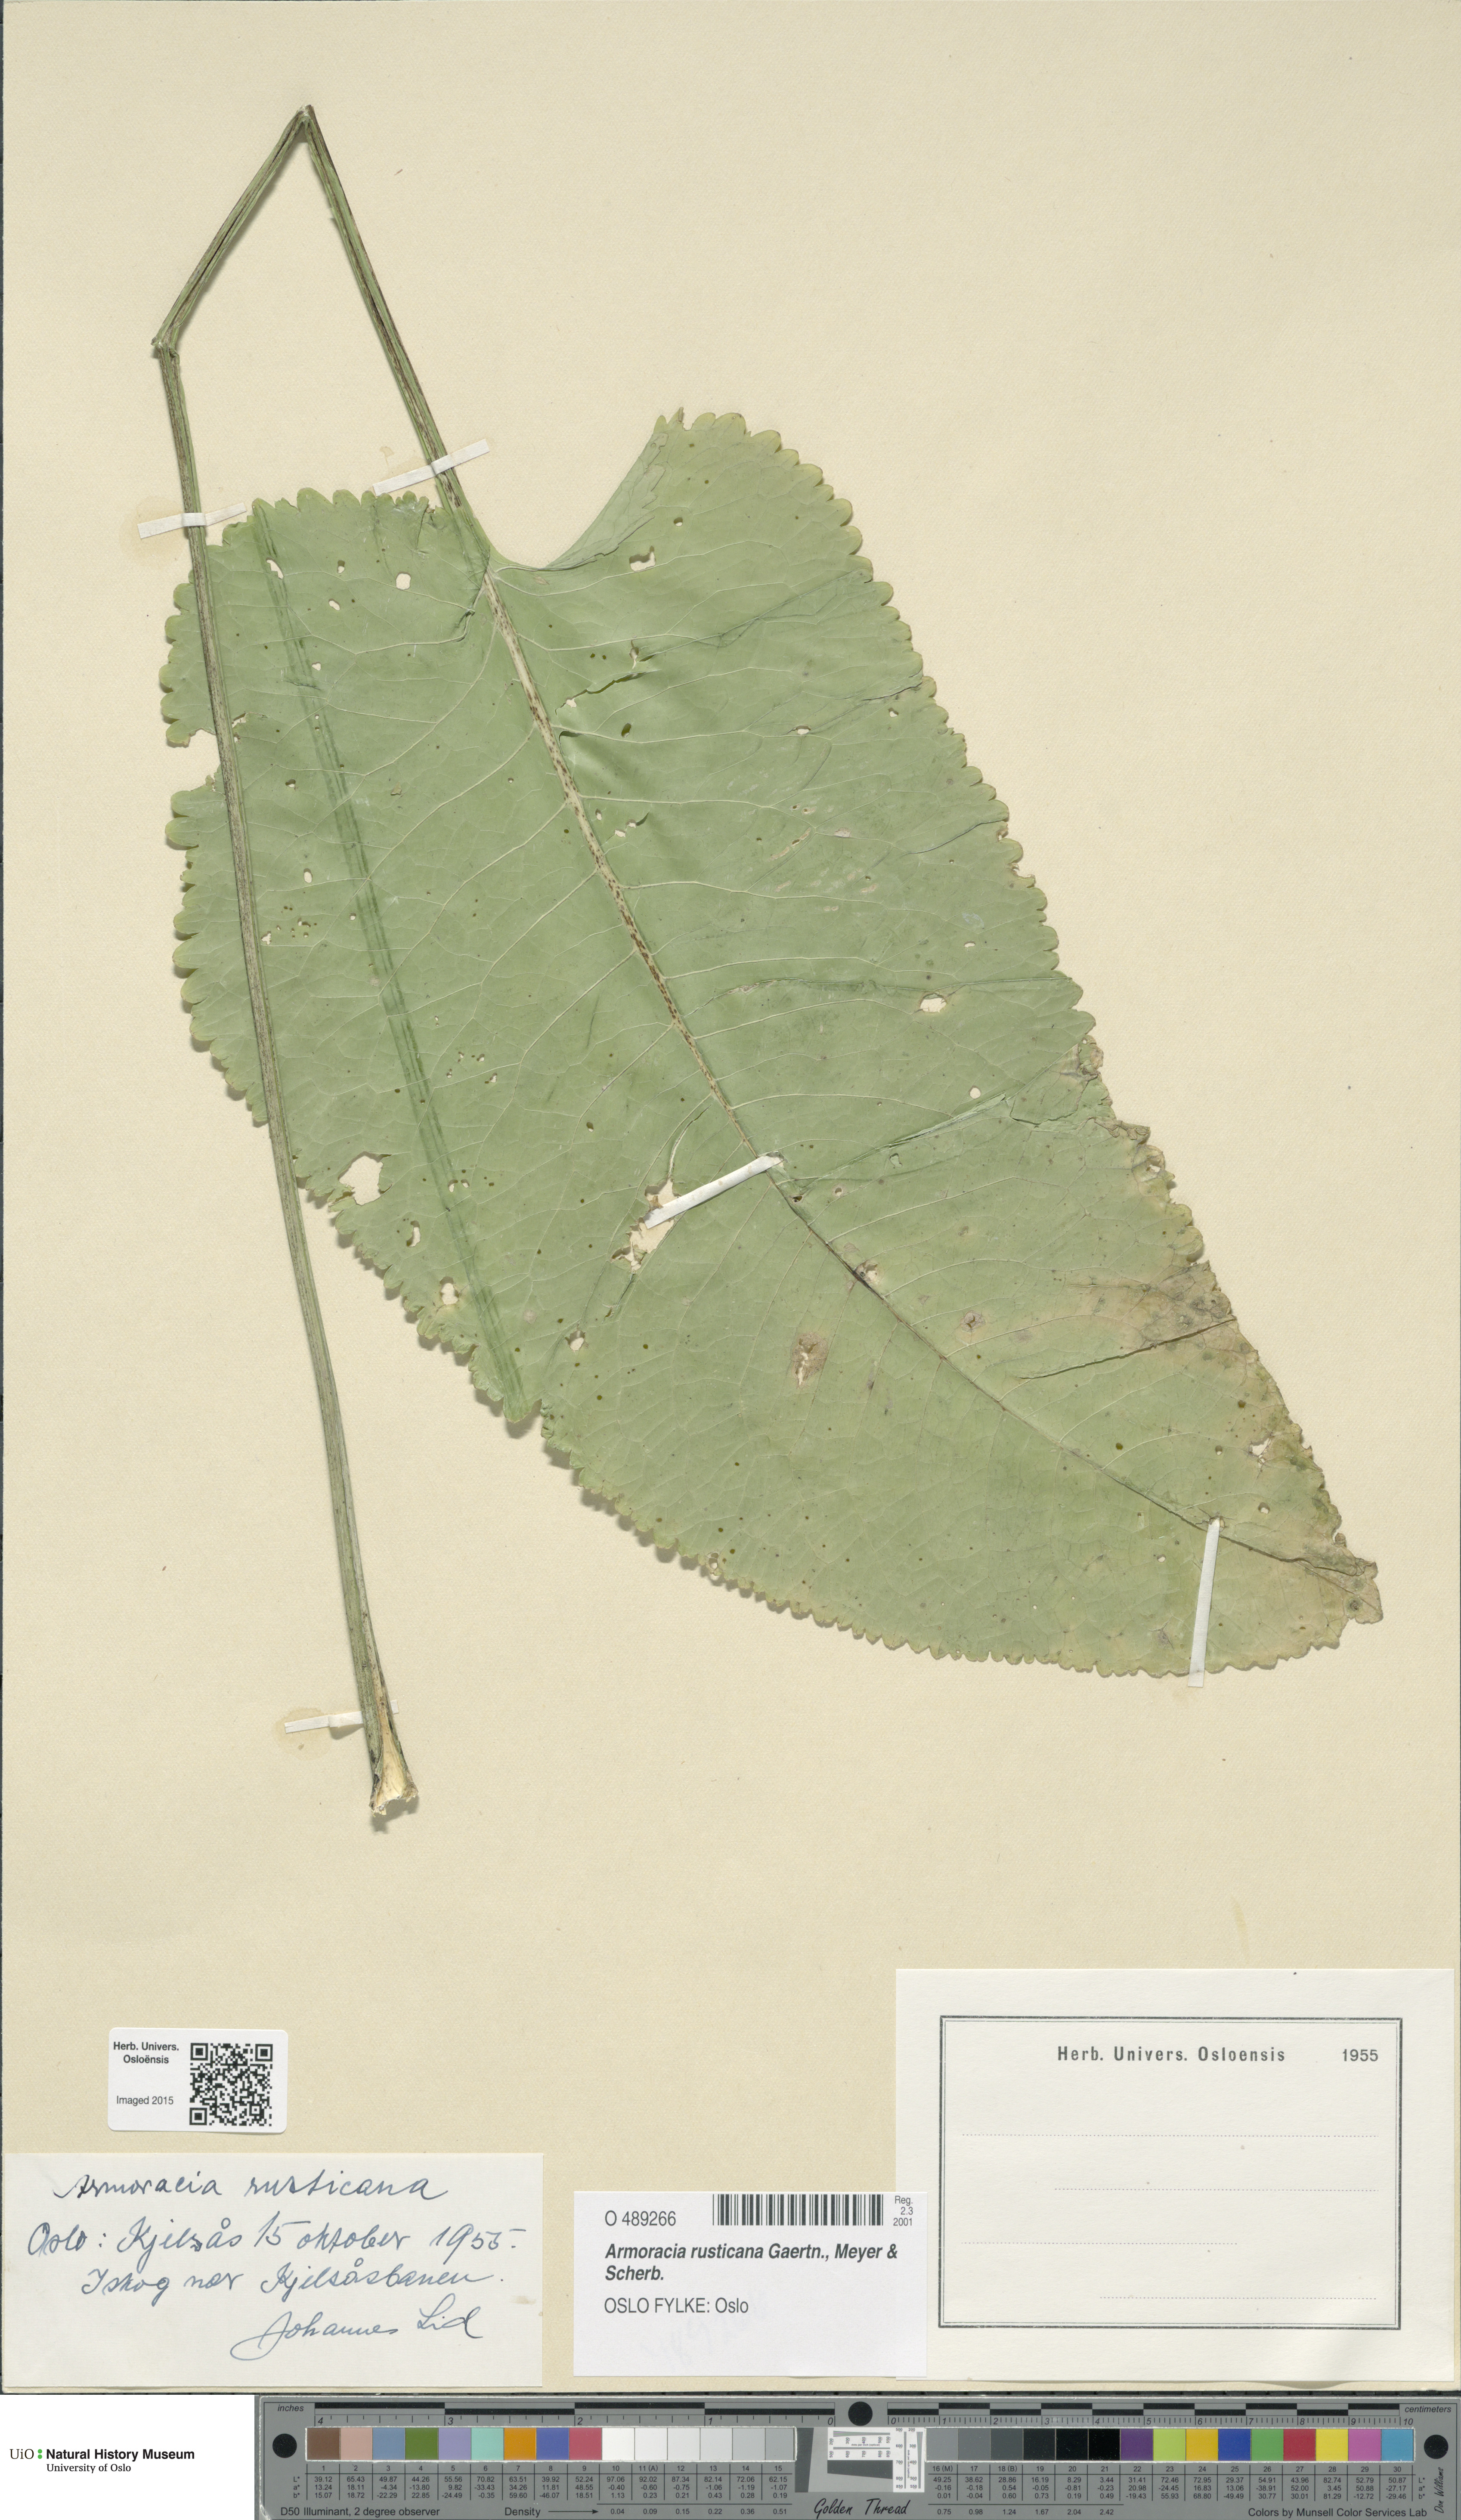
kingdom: Plantae
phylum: Tracheophyta
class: Magnoliopsida
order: Brassicales
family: Brassicaceae
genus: Armoracia
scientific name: Armoracia rusticana
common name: Horseradish
